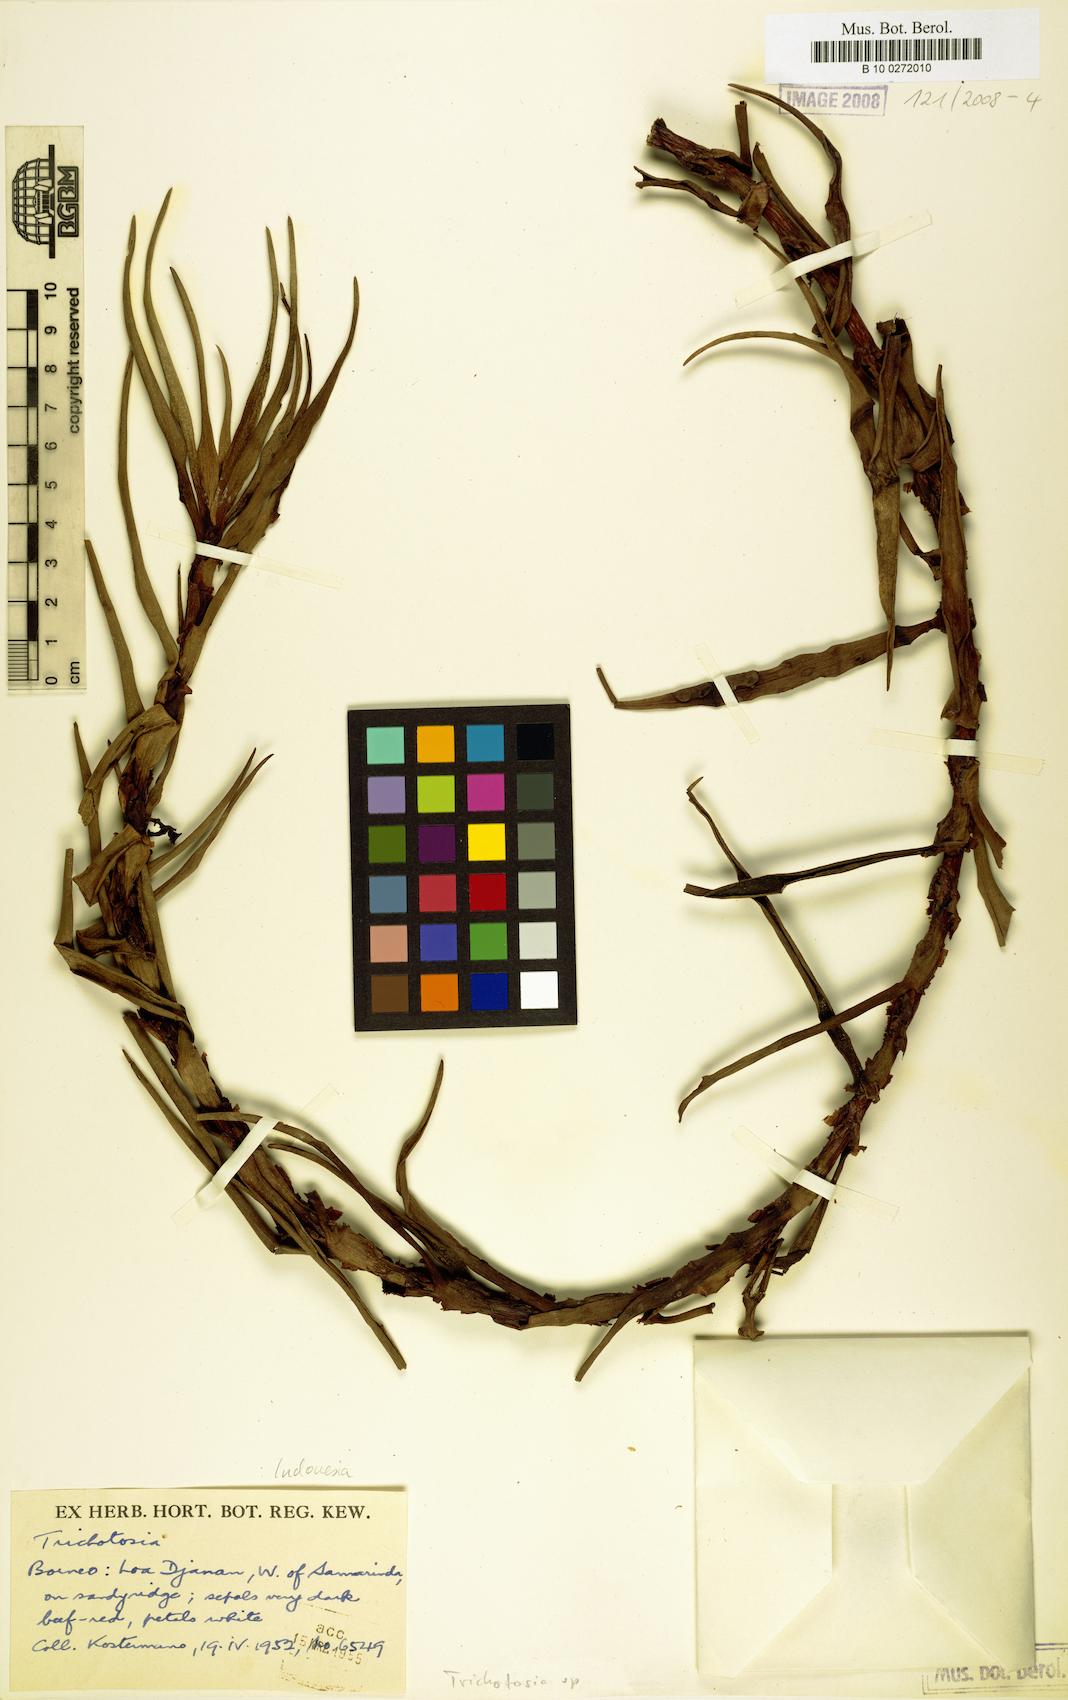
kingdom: Plantae
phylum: Tracheophyta
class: Liliopsida
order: Asparagales
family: Orchidaceae
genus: Trichotosia
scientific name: Trichotosia
